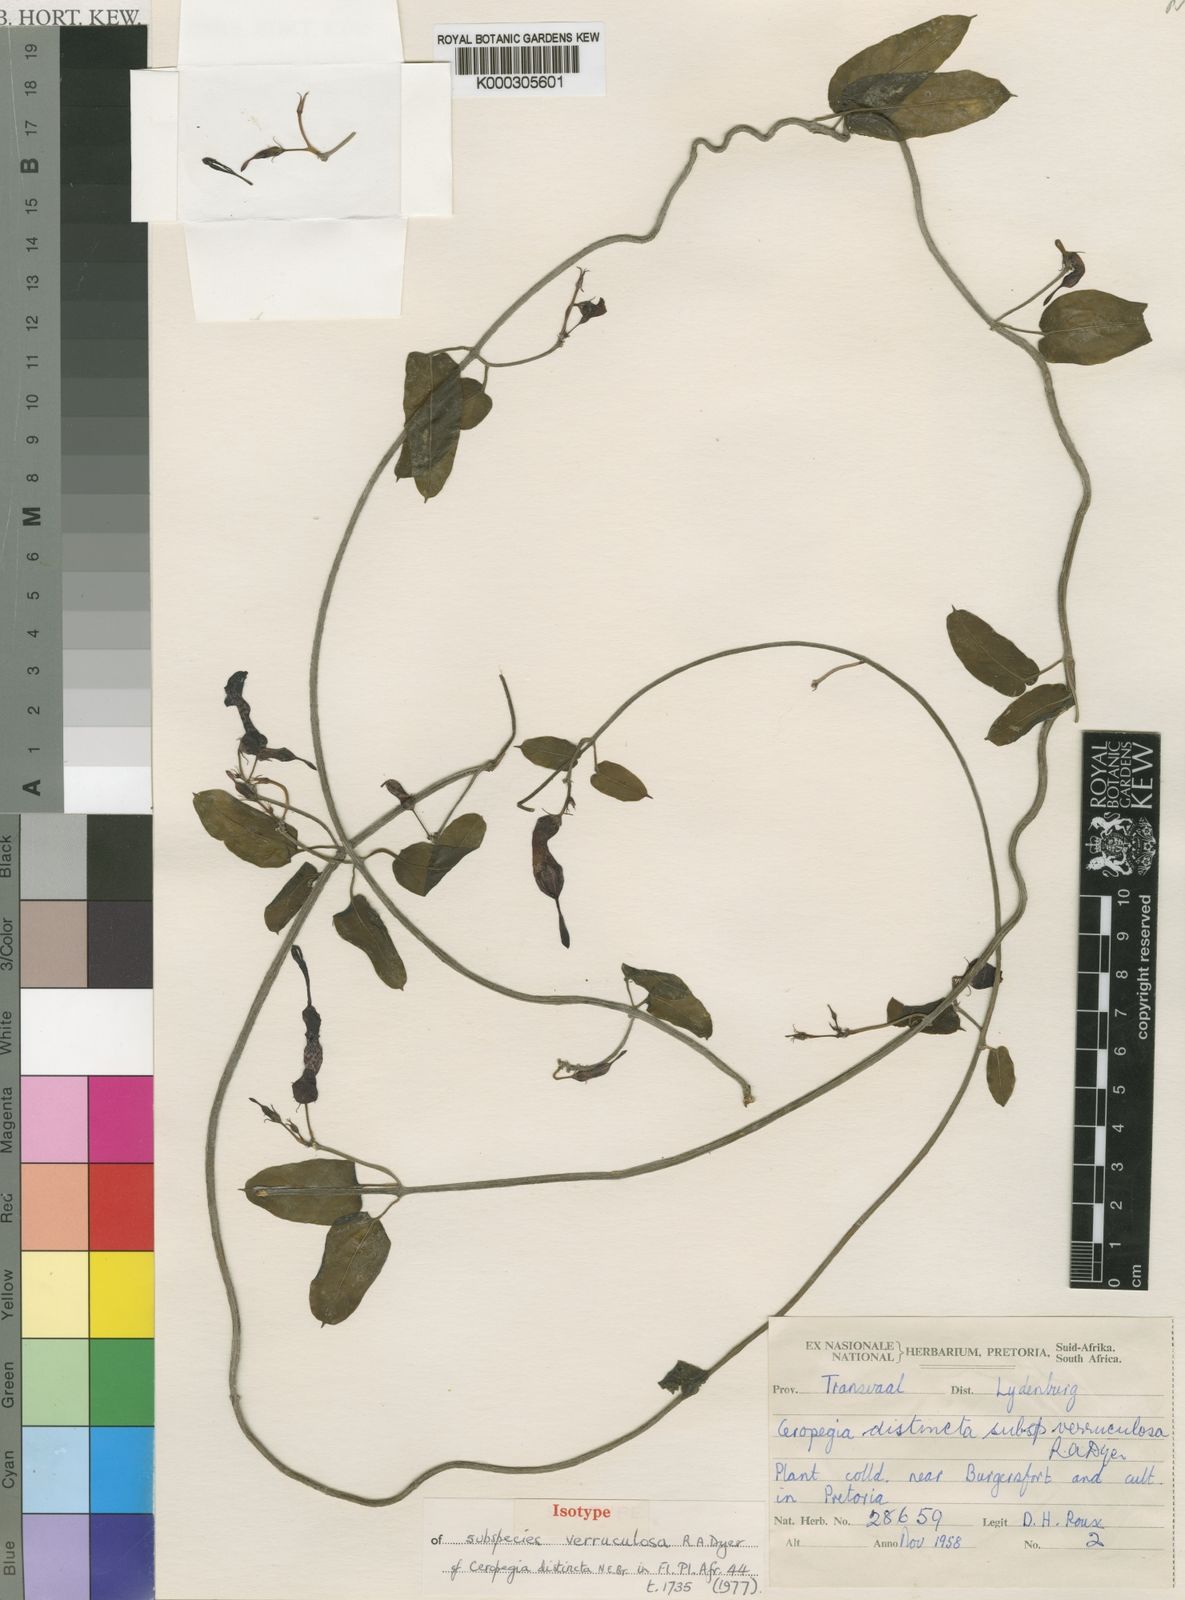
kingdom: Plantae
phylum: Tracheophyta
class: Magnoliopsida
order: Gentianales
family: Apocynaceae
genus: Ceropegia
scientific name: Ceropegia verruculosa
